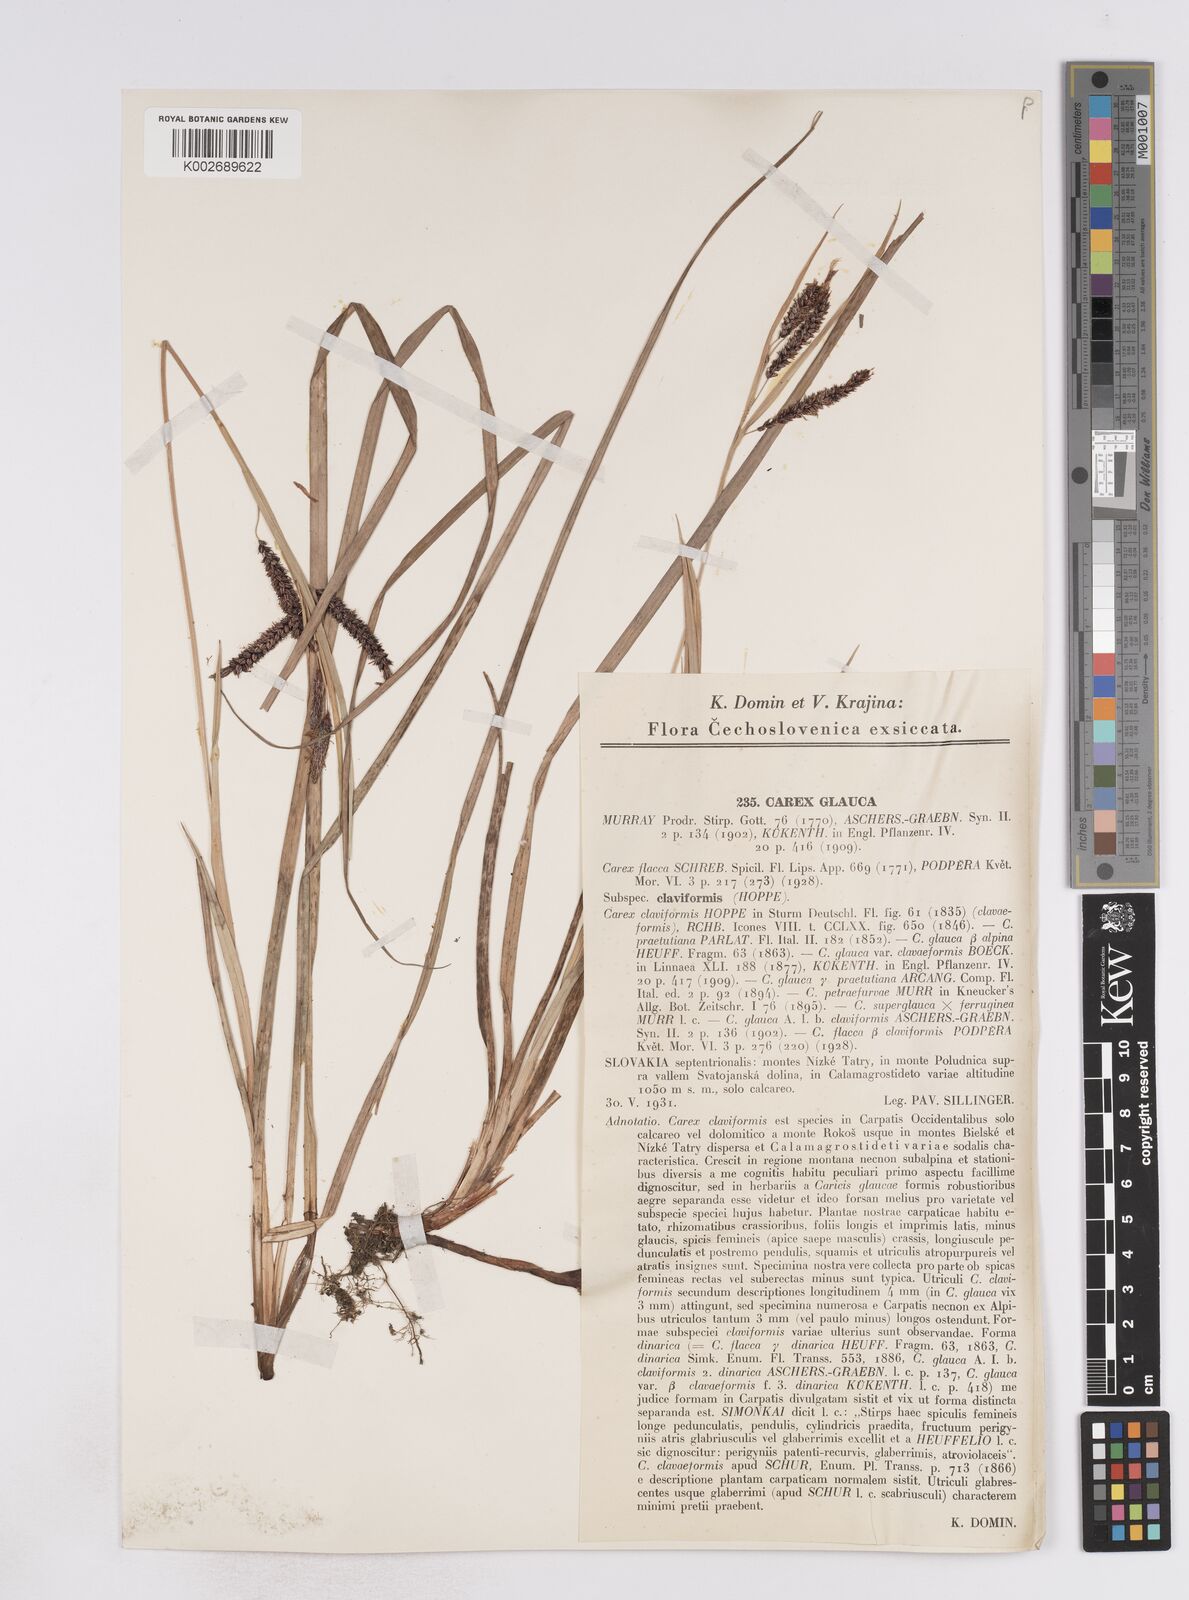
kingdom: Plantae
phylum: Tracheophyta
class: Liliopsida
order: Poales
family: Cyperaceae
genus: Carex
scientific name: Carex flacca
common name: Glaucous sedge
